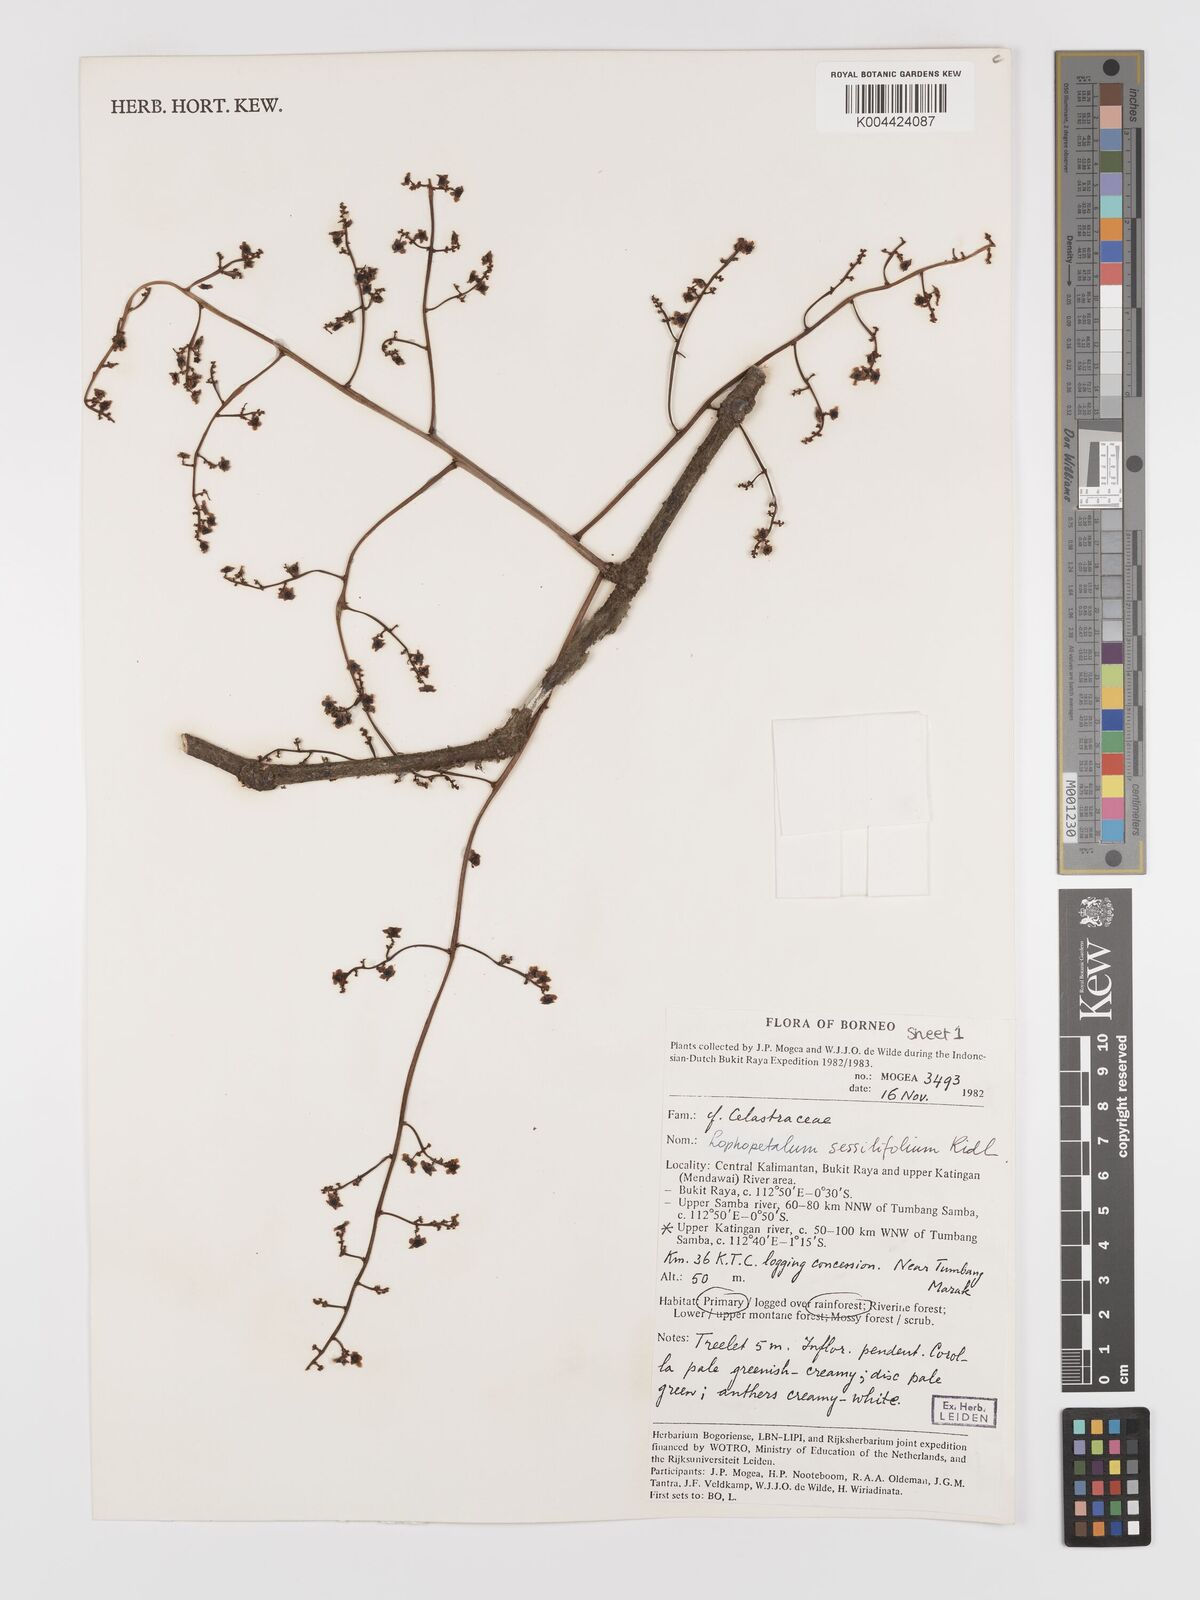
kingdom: Plantae
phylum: Tracheophyta
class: Magnoliopsida
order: Celastrales
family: Celastraceae
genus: Lophopetalum
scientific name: Lophopetalum sessilifolium
